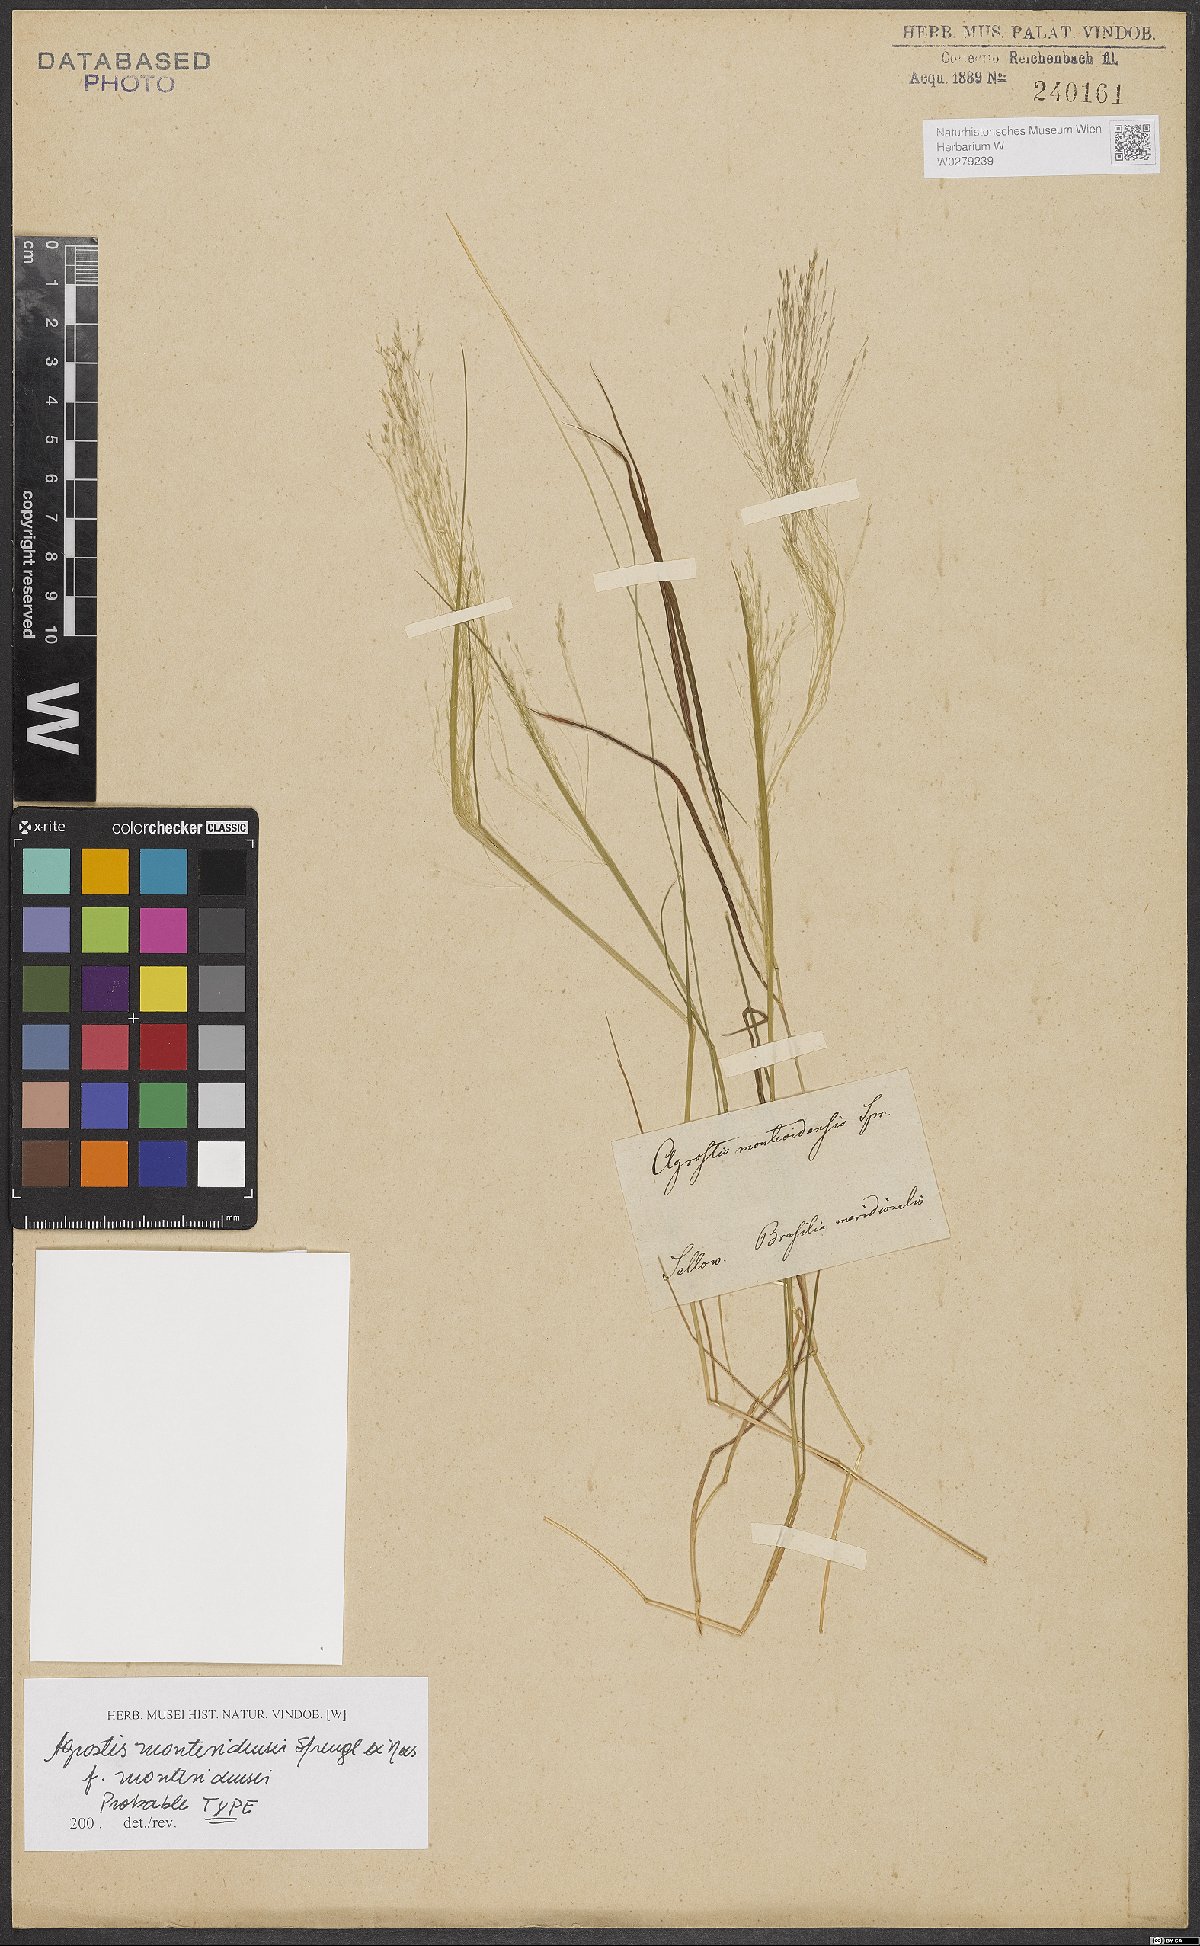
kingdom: Plantae
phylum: Tracheophyta
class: Liliopsida
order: Poales
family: Poaceae
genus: Agrostis
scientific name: Agrostis montevidensis
